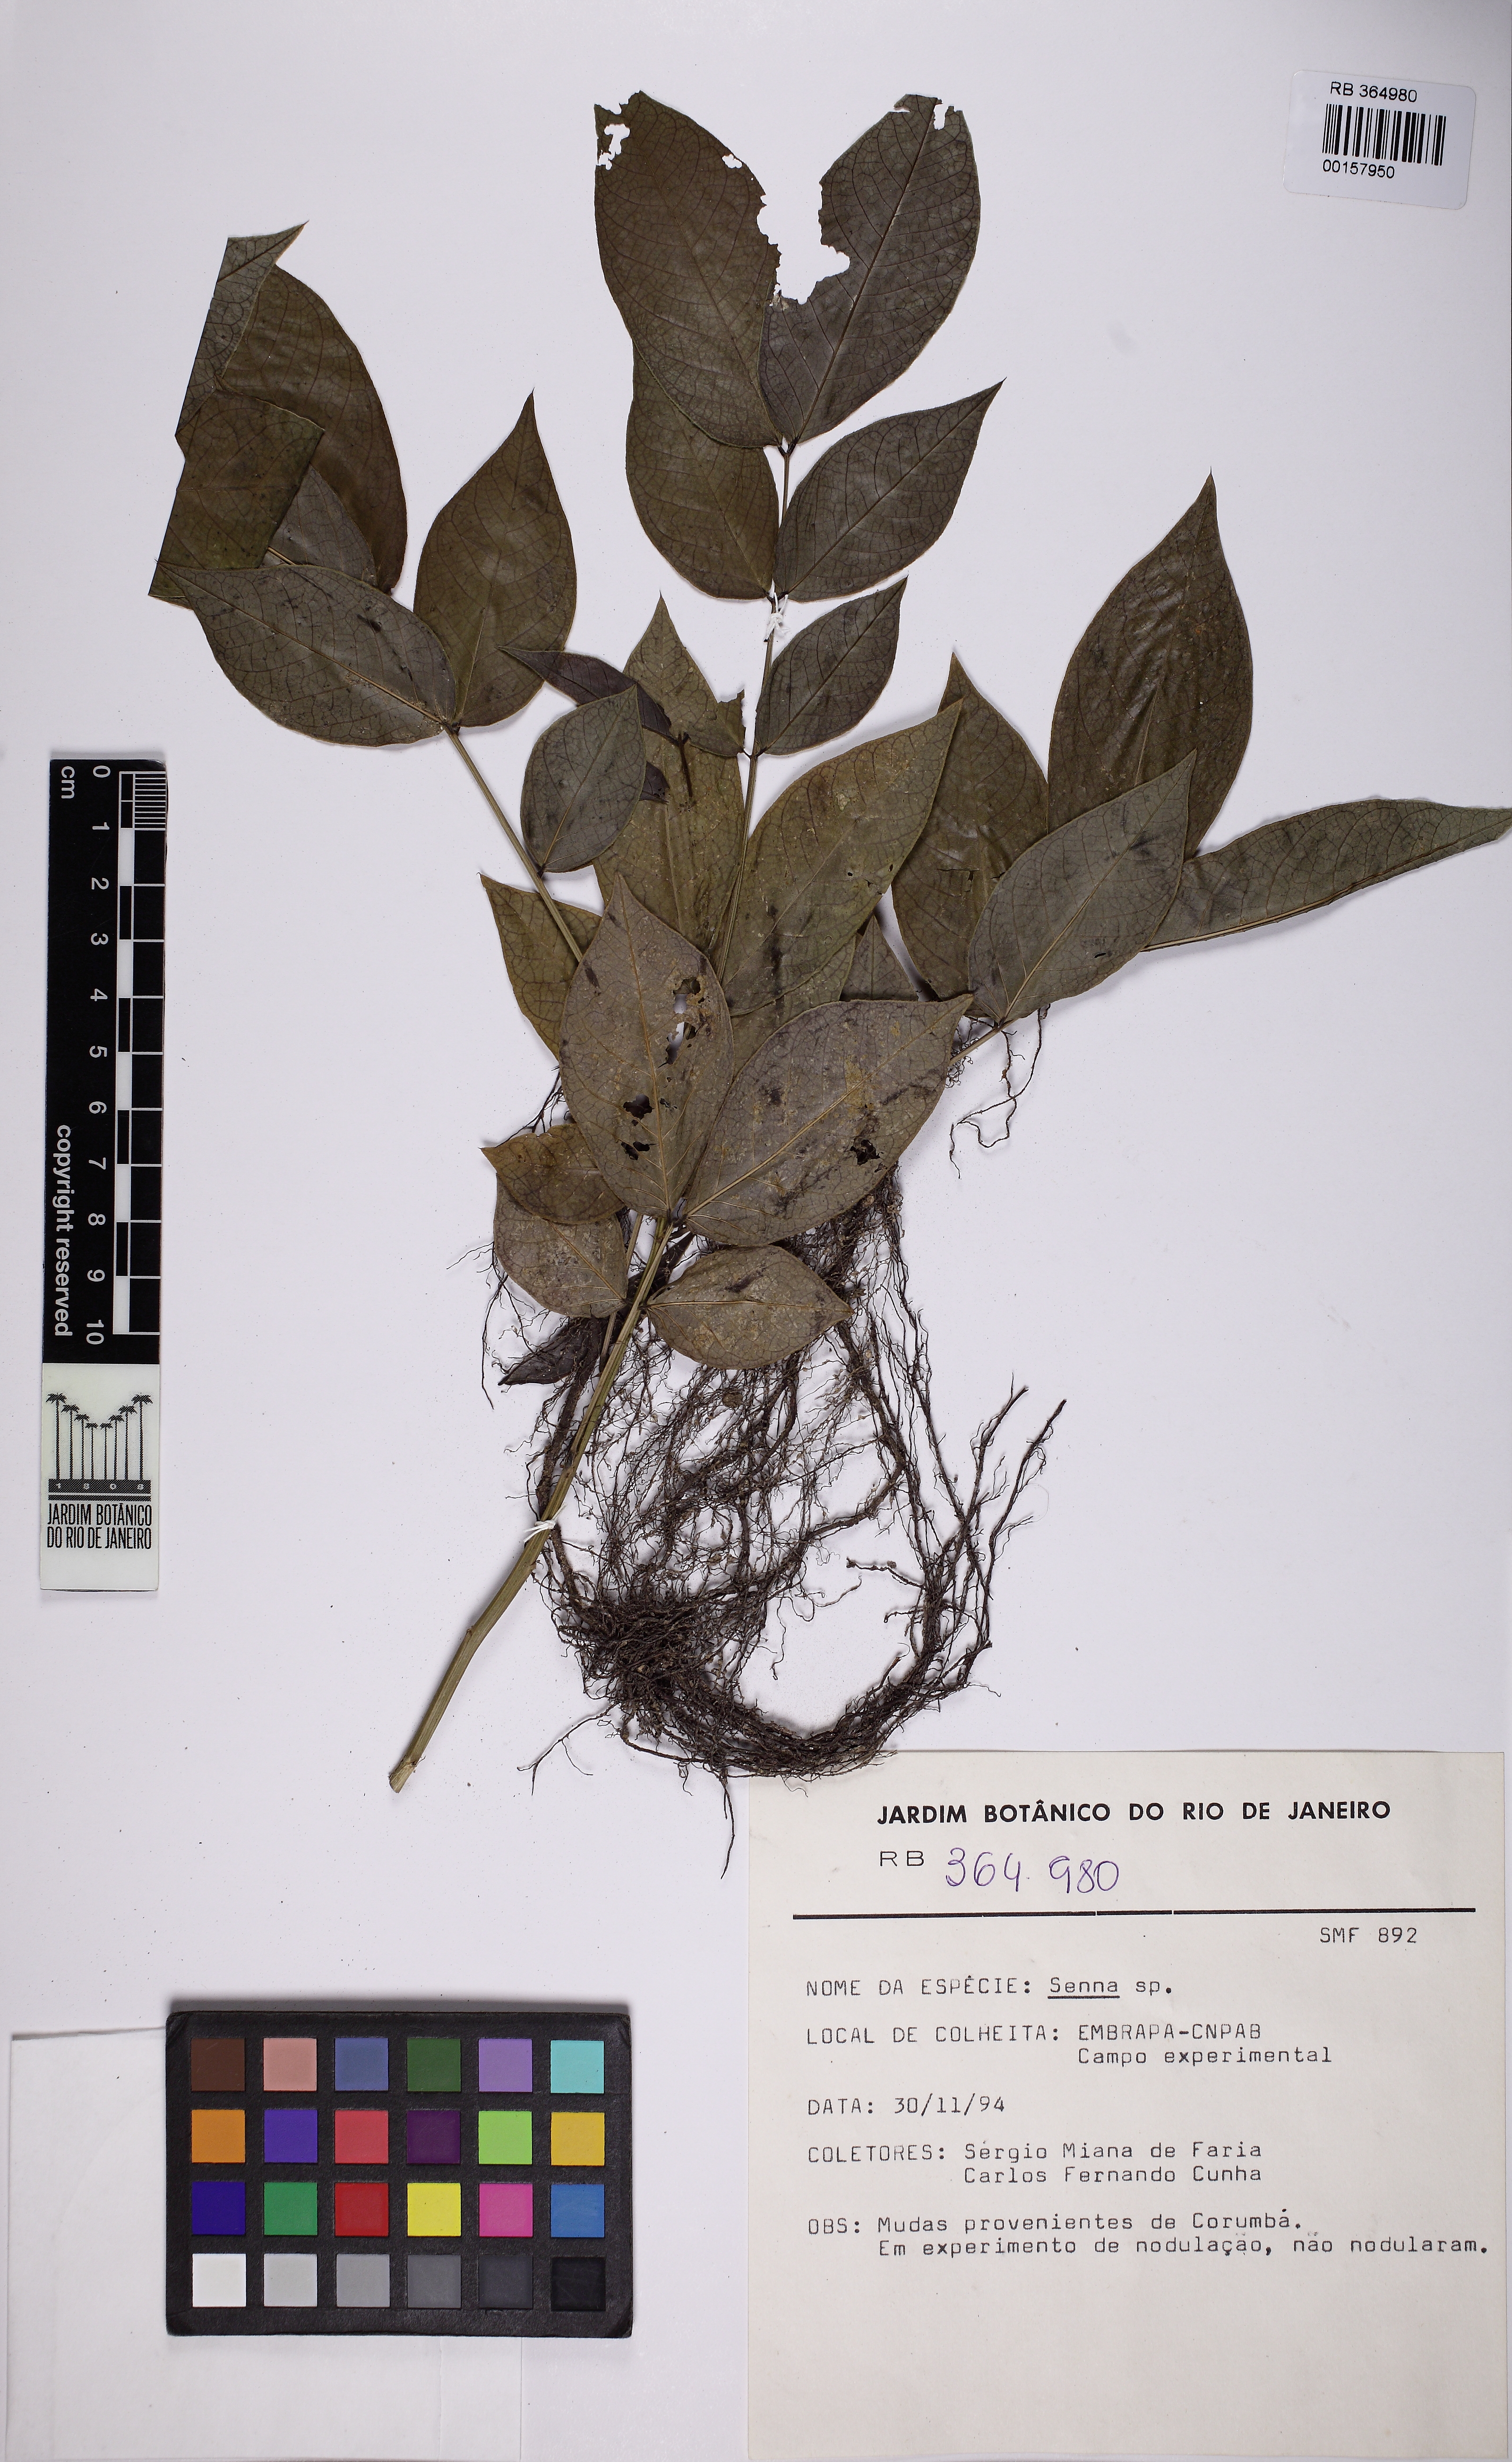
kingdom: Plantae
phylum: Tracheophyta
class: Magnoliopsida
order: Fabales
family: Fabaceae
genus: Senna
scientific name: Senna
